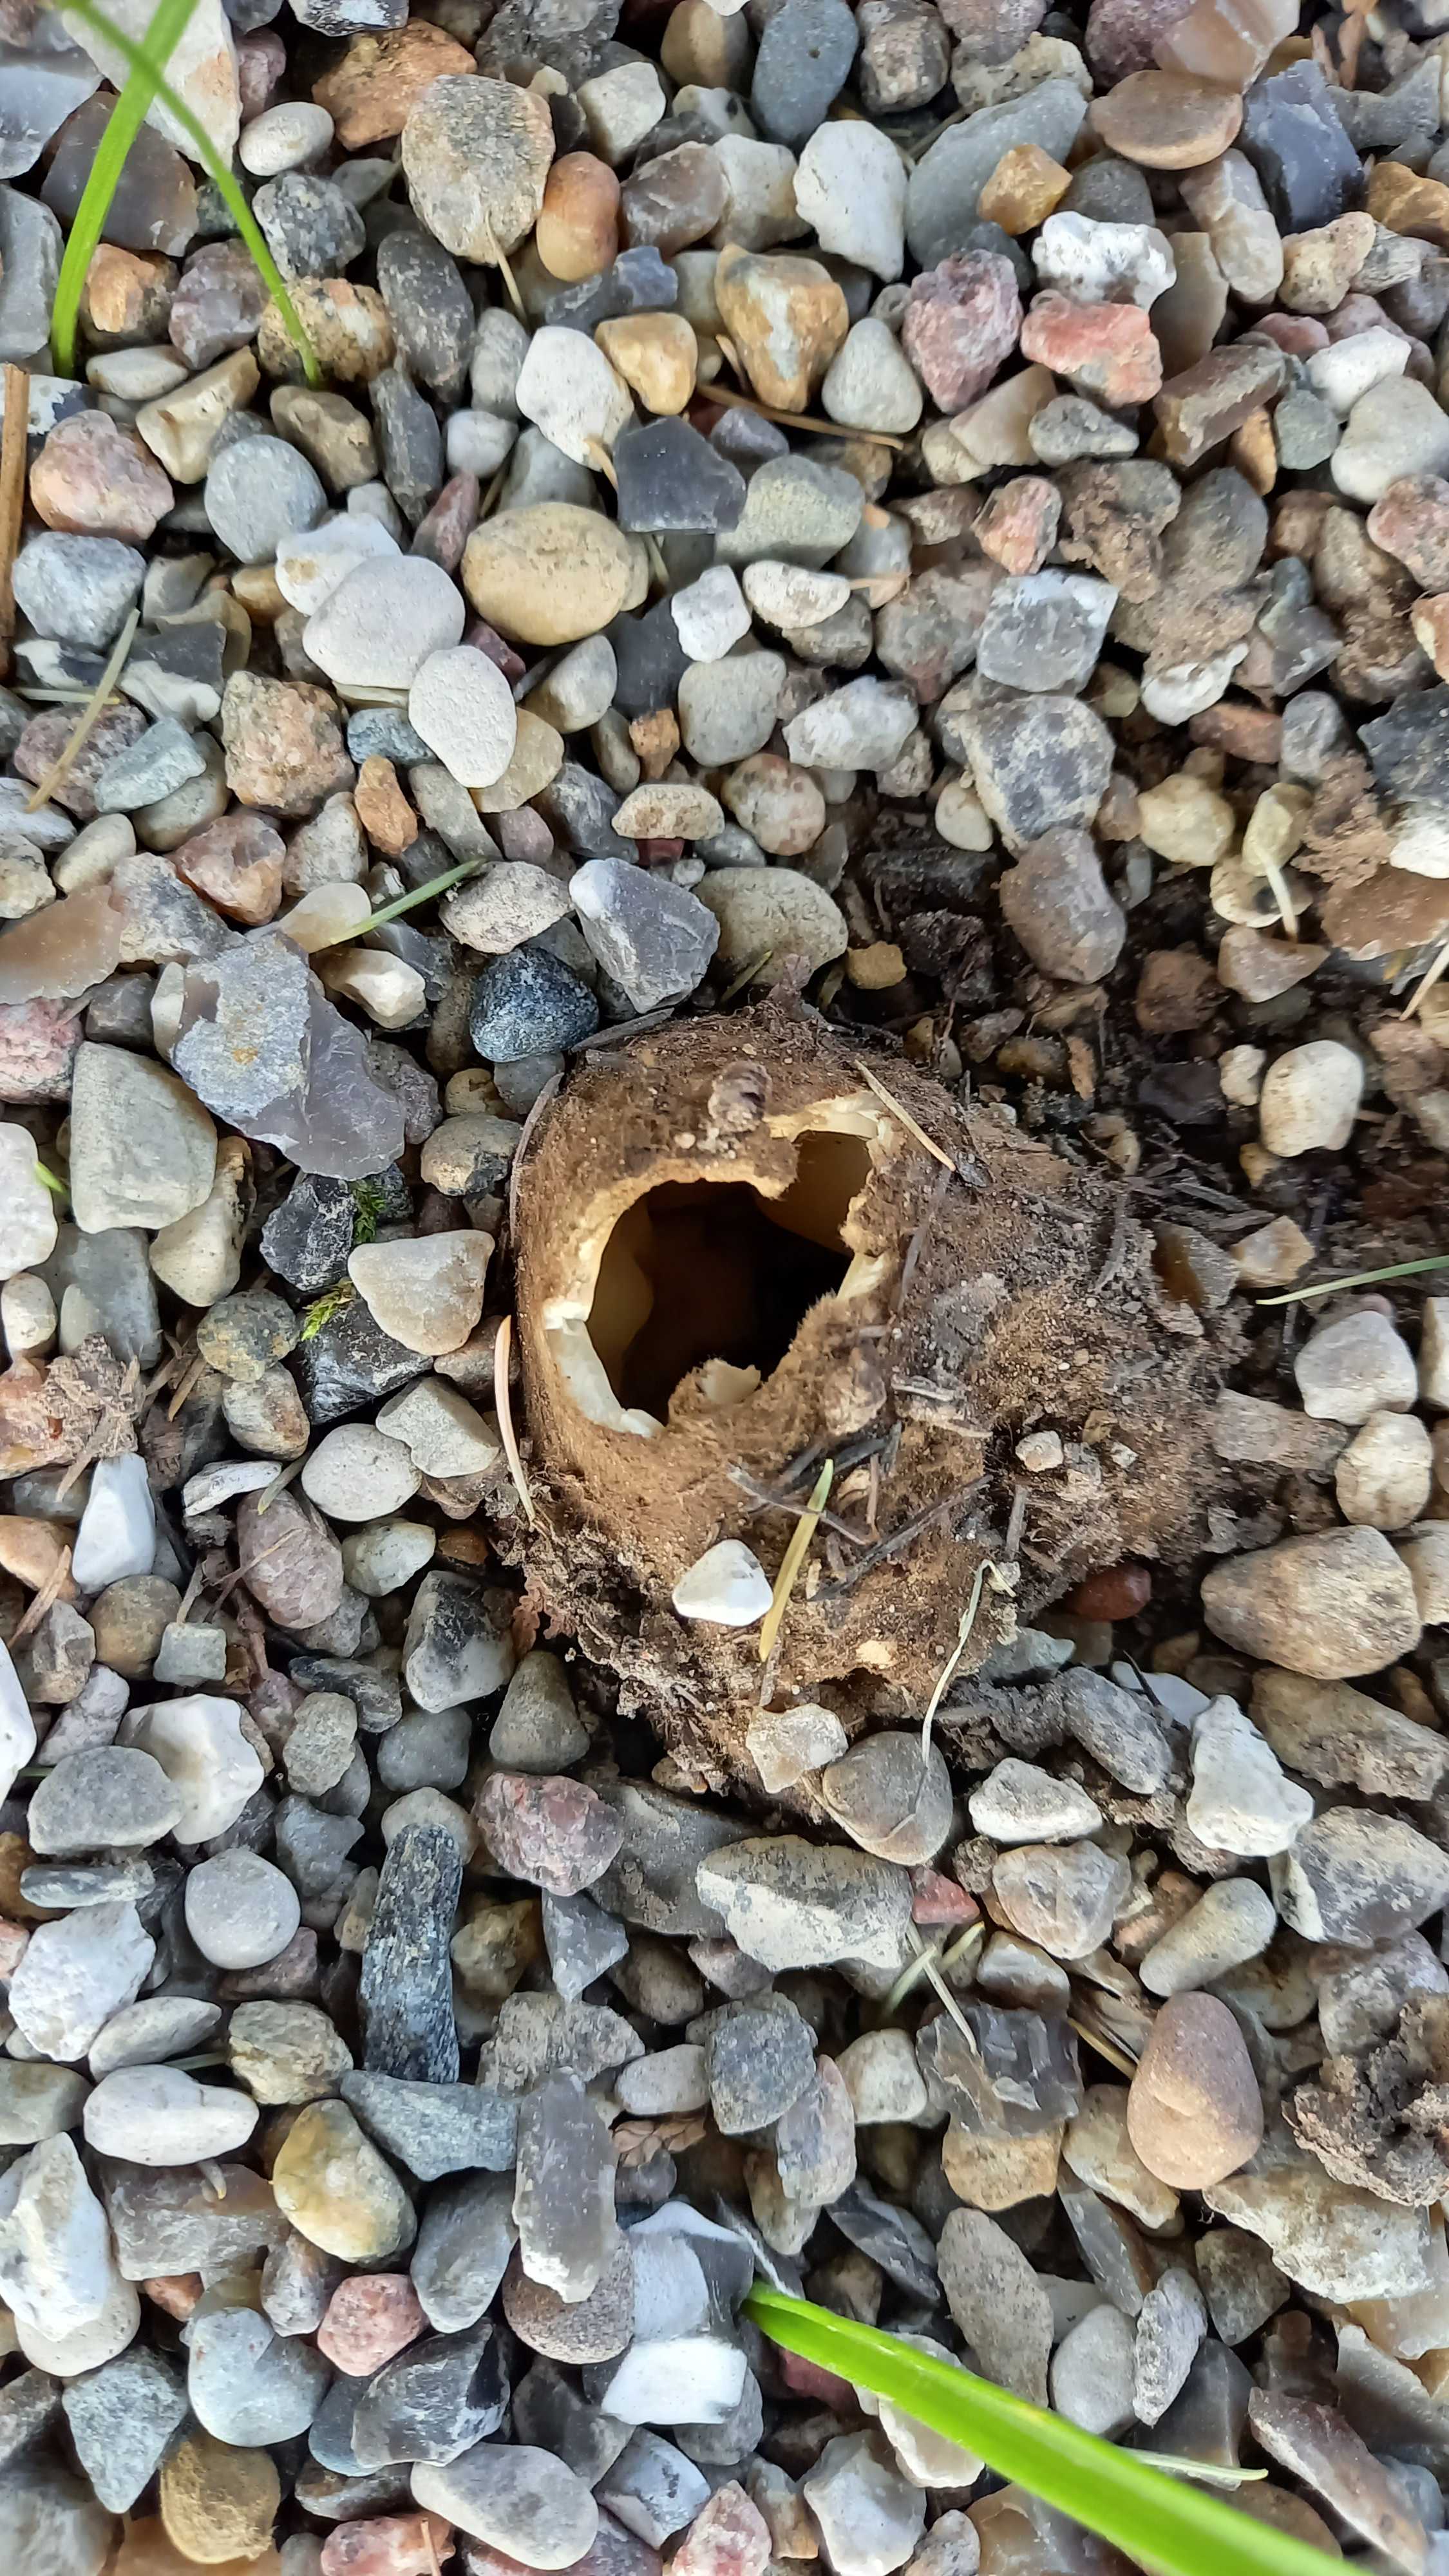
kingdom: Fungi
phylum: Ascomycota
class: Pezizomycetes
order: Pezizales
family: Pyronemataceae
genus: Geopora
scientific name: Geopora sumneriana
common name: vår-jordbæger
